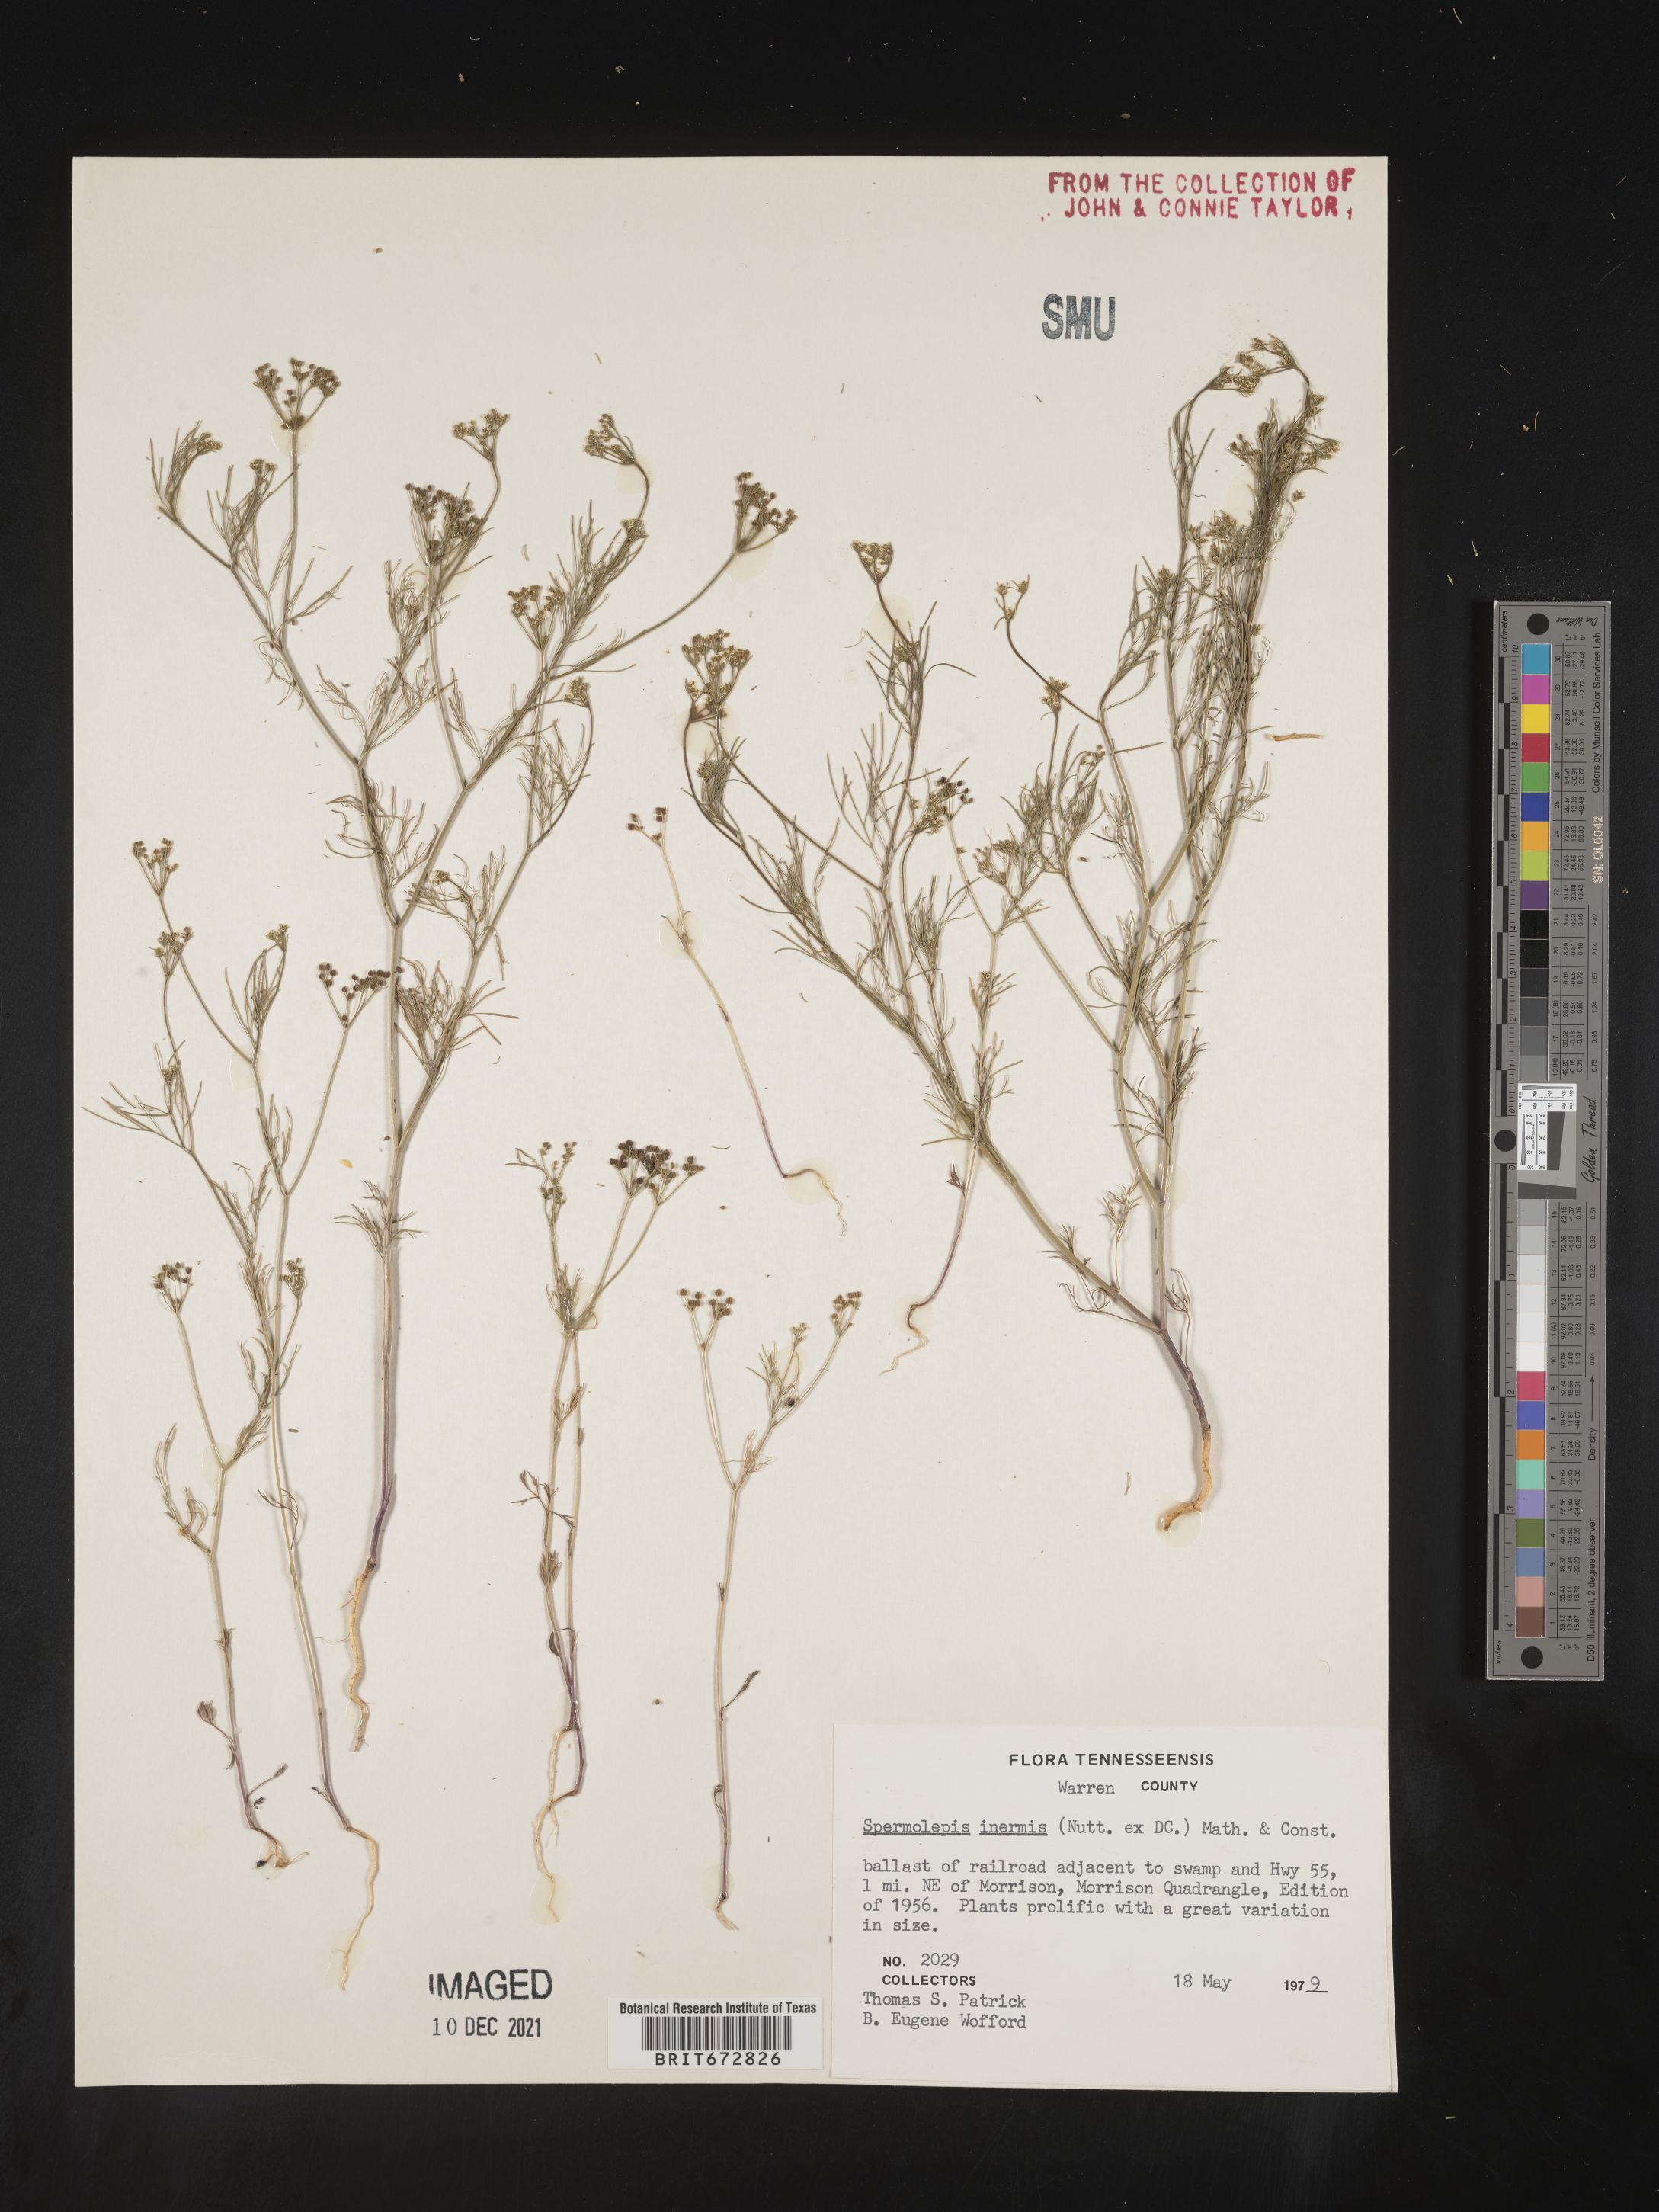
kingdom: Plantae
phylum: Tracheophyta
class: Magnoliopsida
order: Apiales
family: Apiaceae
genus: Spermolepis
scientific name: Spermolepis inermis
